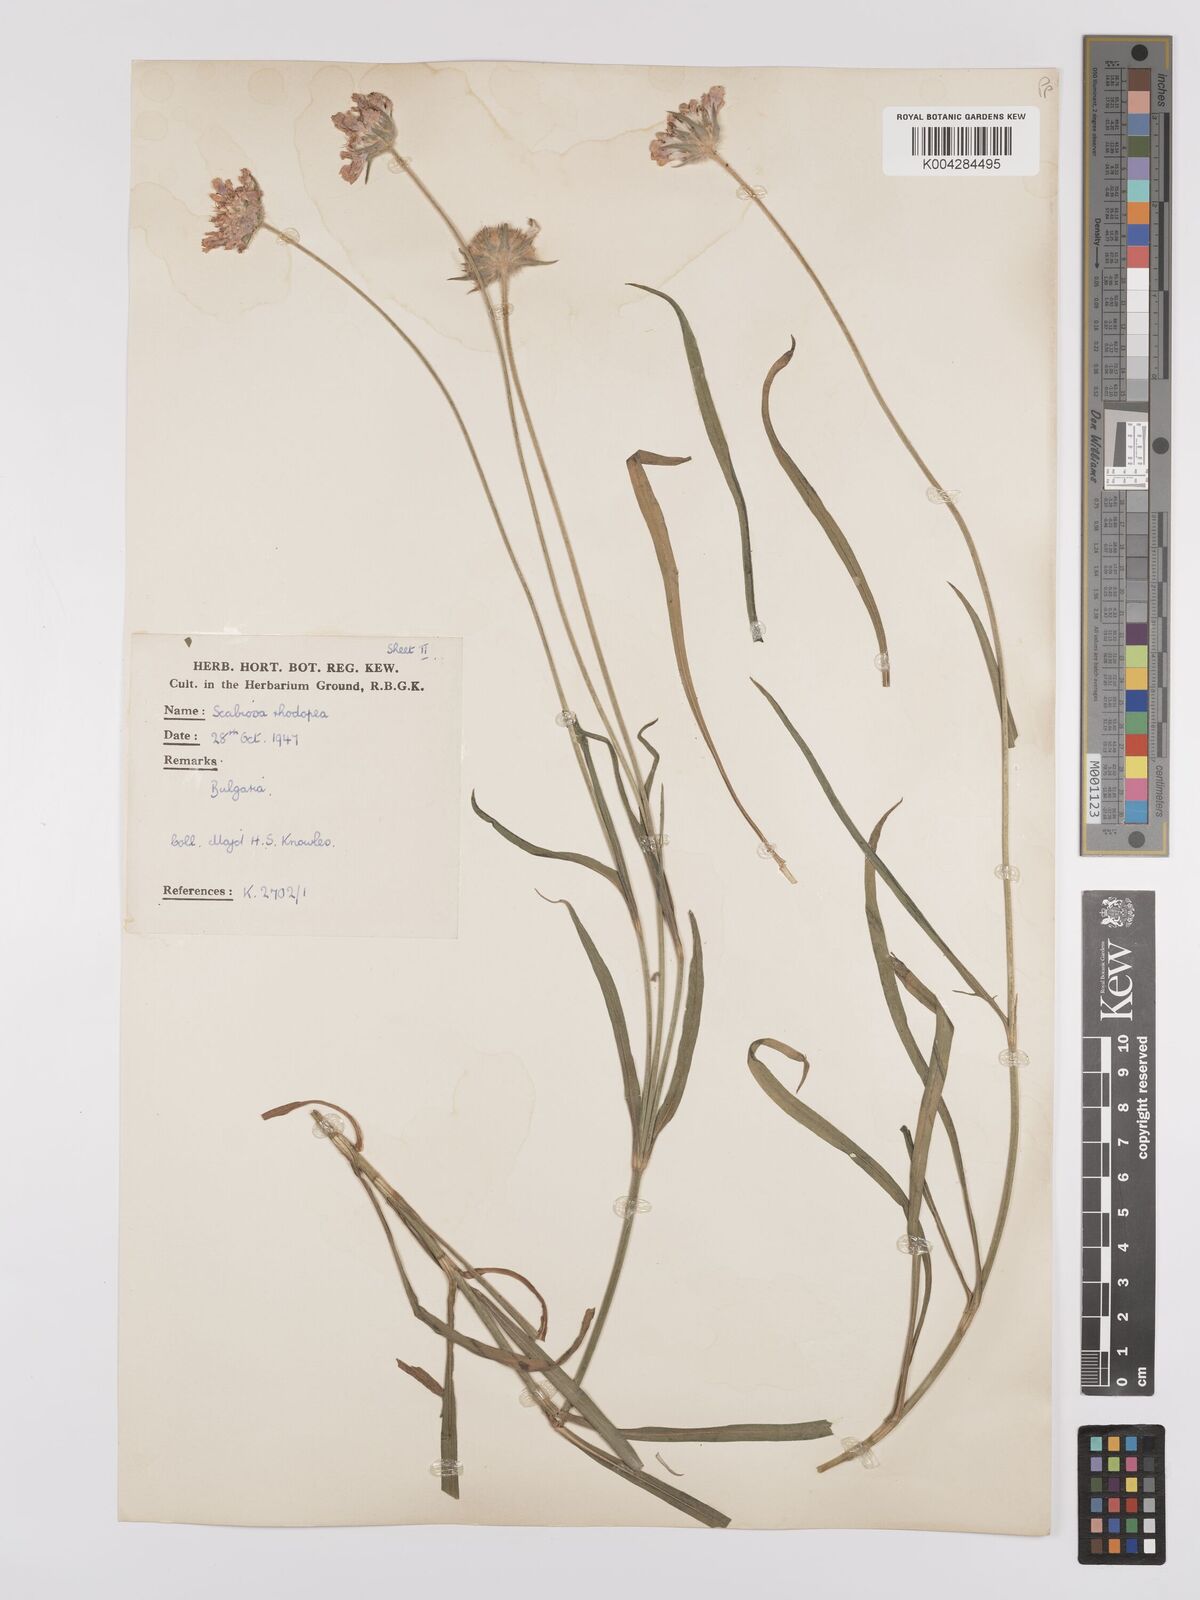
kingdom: Plantae
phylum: Tracheophyta
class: Magnoliopsida
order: Dipsacales
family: Caprifoliaceae
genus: Scabiosa
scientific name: Scabiosa ochroleuca
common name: Cream pincushions
